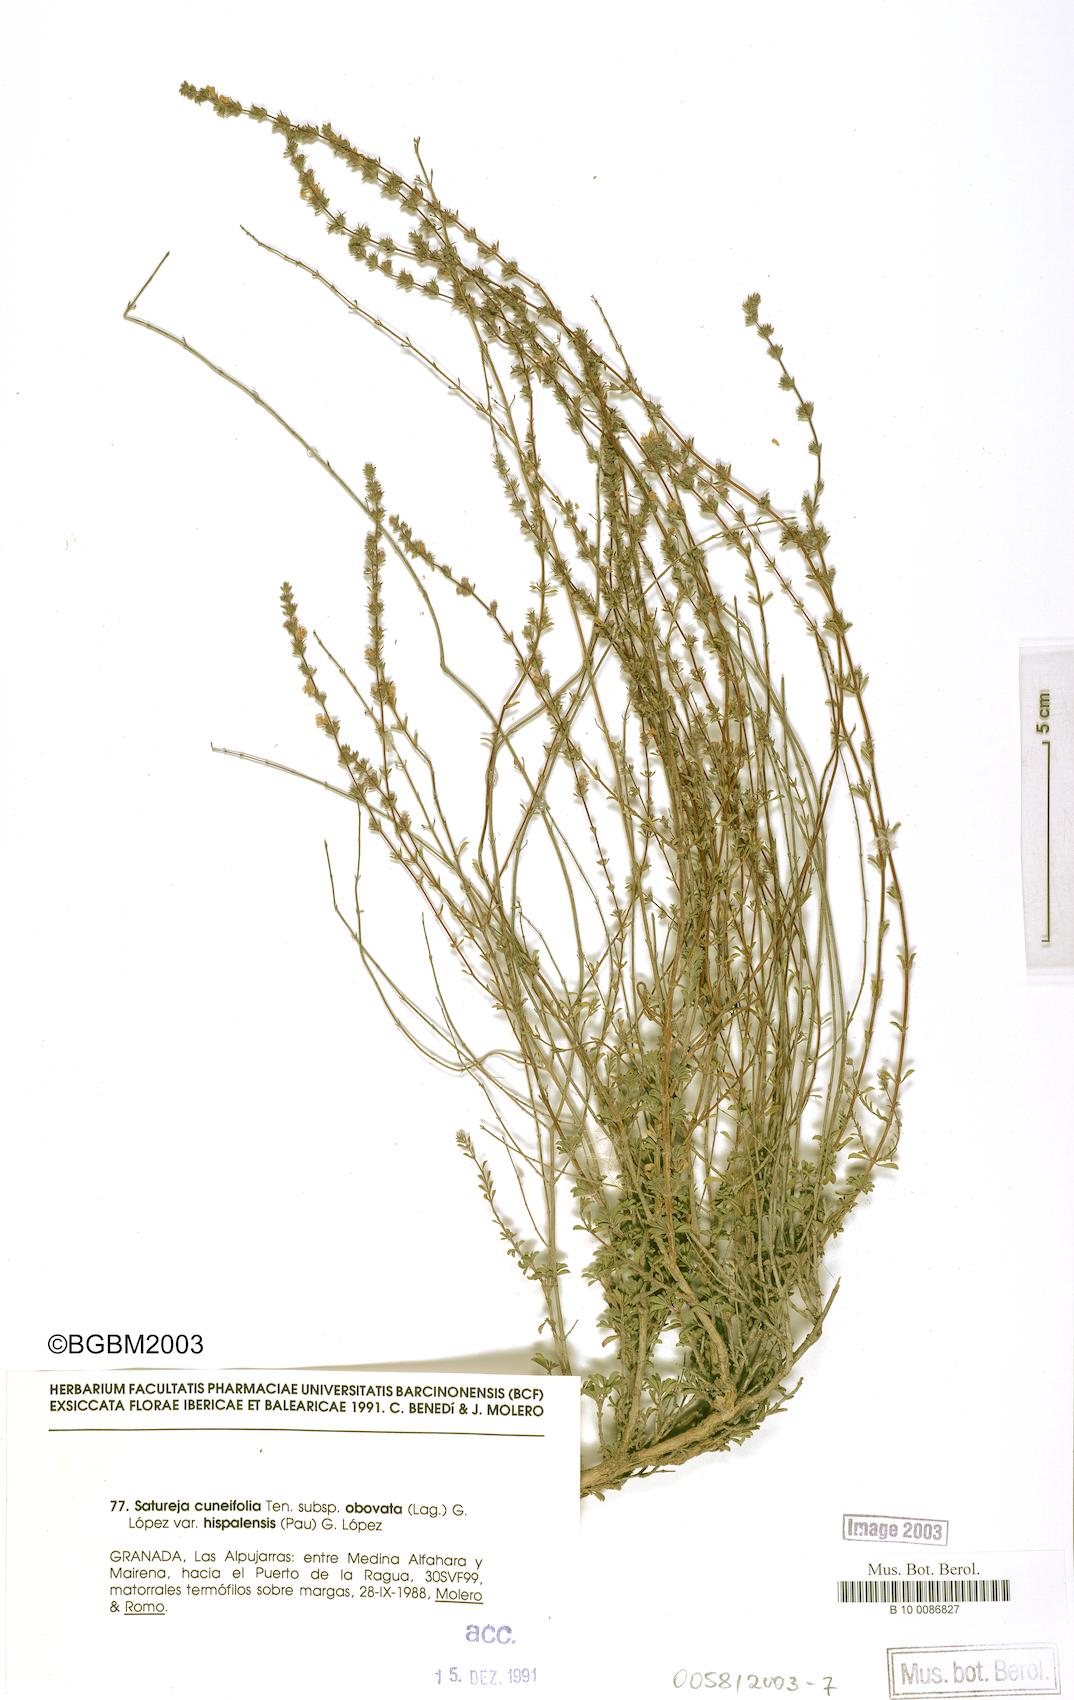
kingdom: Plantae
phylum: Tracheophyta
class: Magnoliopsida
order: Lamiales
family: Lamiaceae
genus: Satureja
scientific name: Satureja cuneifolia
